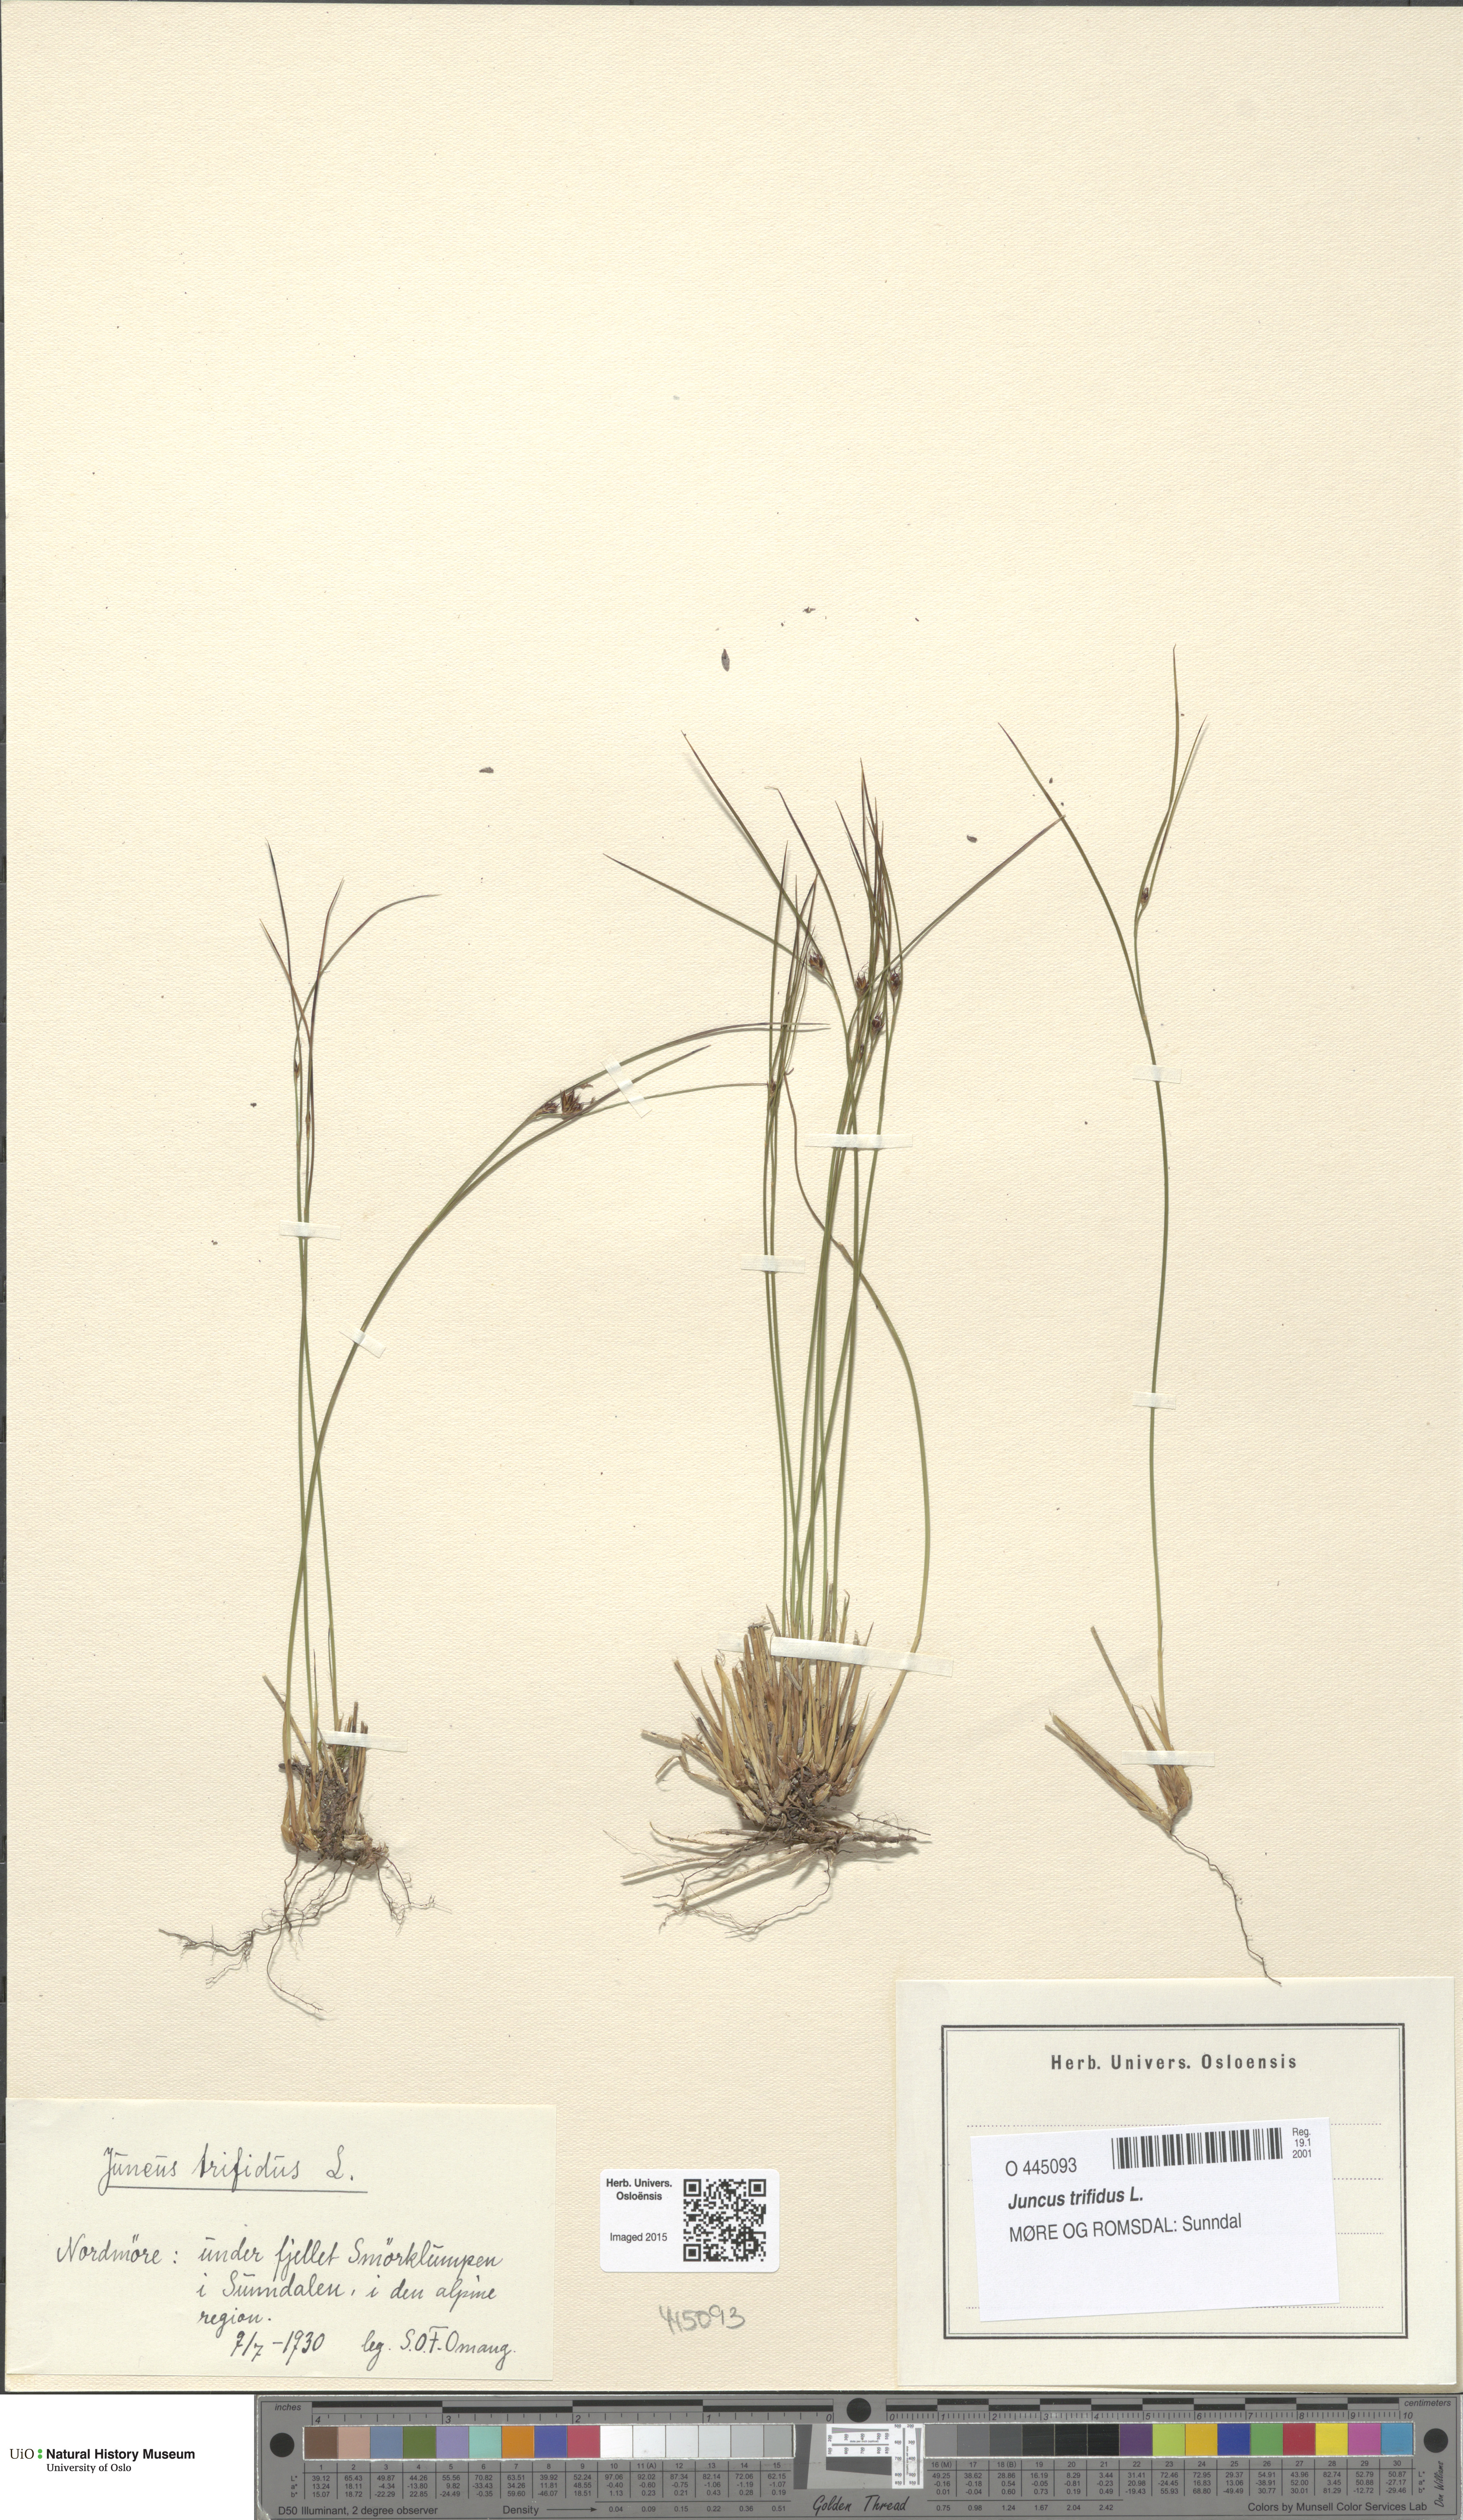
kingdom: Plantae
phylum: Tracheophyta
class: Liliopsida
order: Poales
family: Juncaceae
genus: Oreojuncus
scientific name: Oreojuncus trifidus
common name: Highland rush
